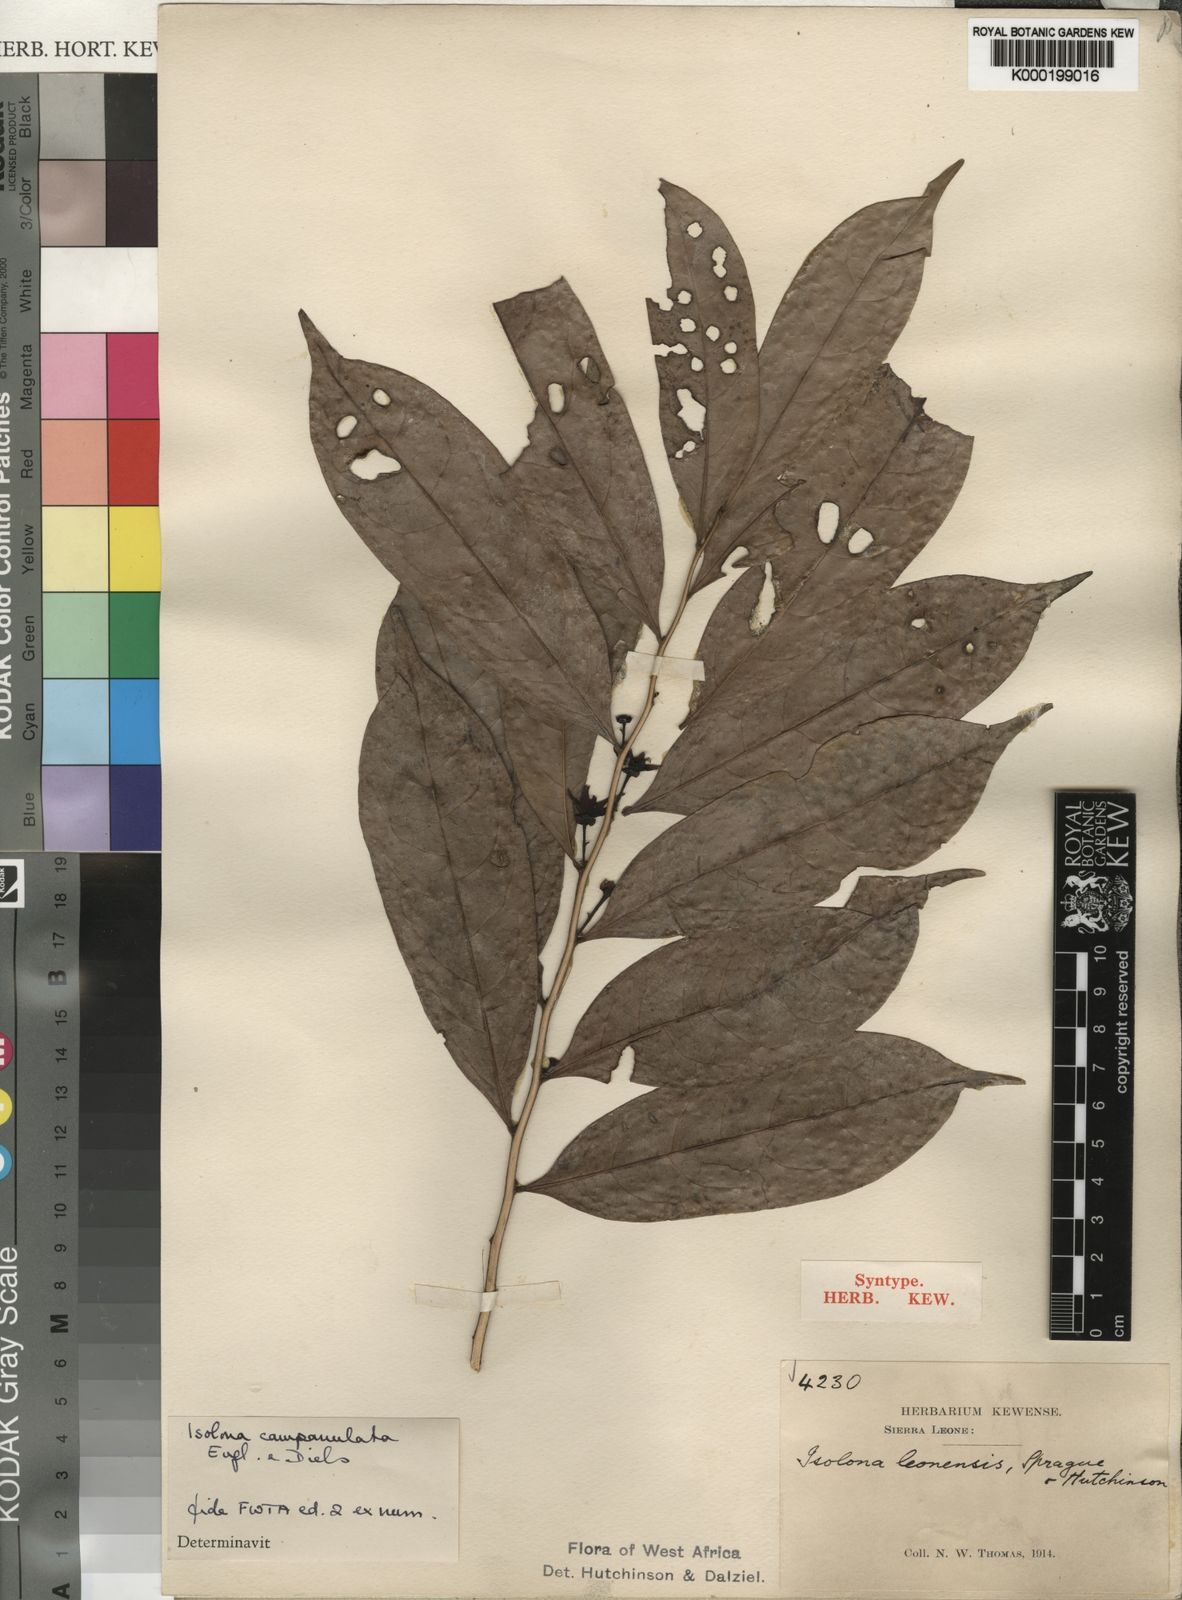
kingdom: Plantae
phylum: Tracheophyta
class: Magnoliopsida
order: Magnoliales
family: Annonaceae
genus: Isolona
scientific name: Isolona campanulata
